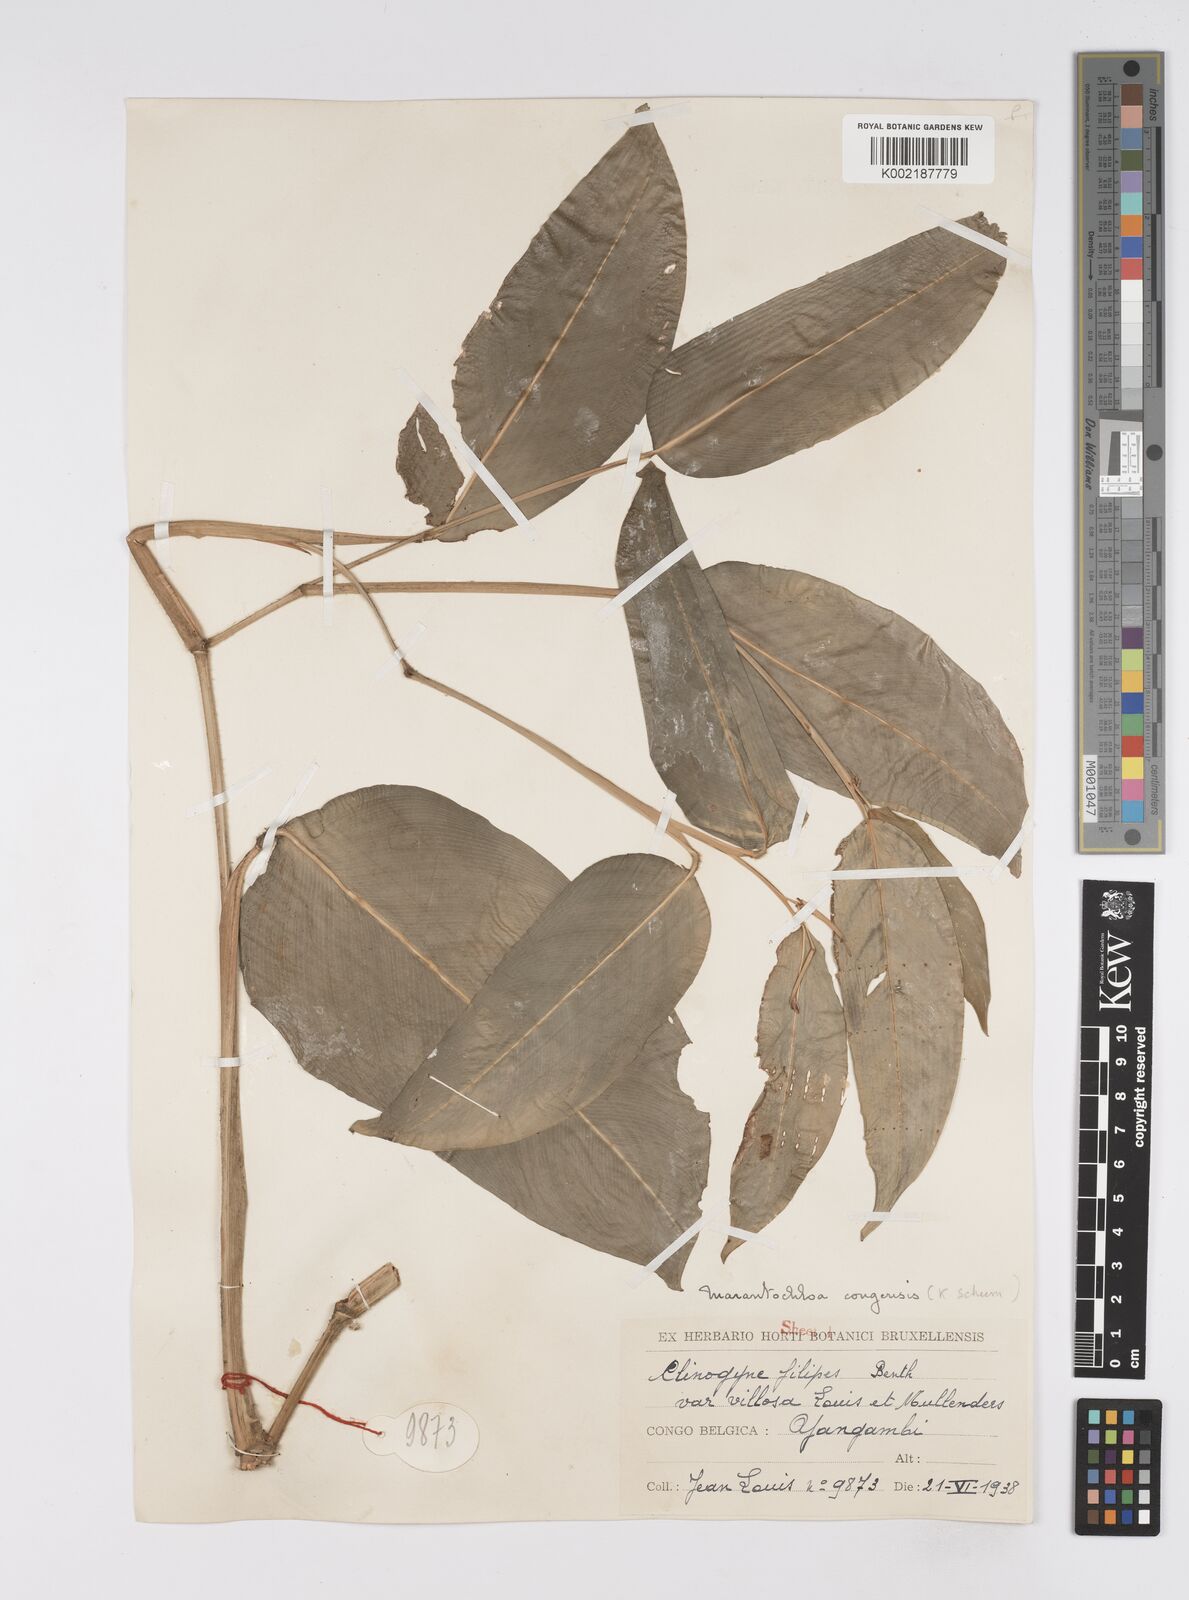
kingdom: Plantae
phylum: Tracheophyta
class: Liliopsida
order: Zingiberales
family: Marantaceae
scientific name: Marantaceae
